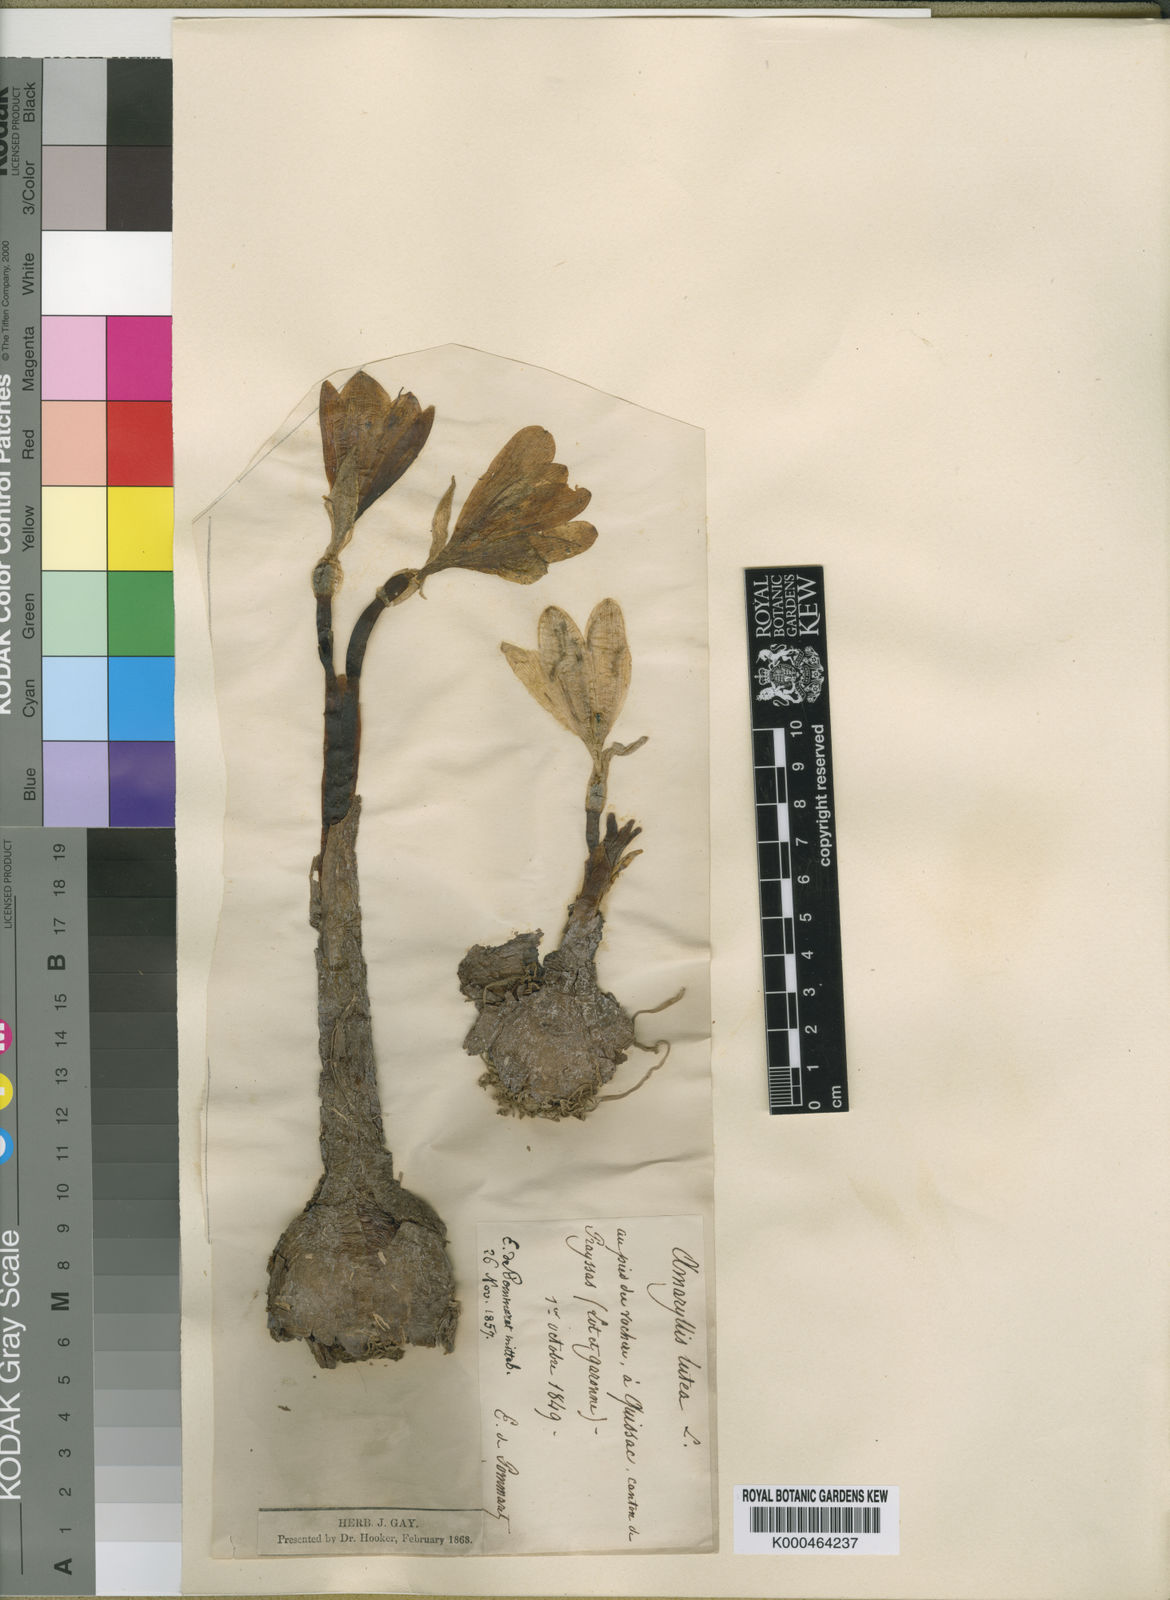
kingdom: Plantae
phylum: Tracheophyta
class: Liliopsida
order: Asparagales
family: Amaryllidaceae
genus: Sternbergia
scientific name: Sternbergia
